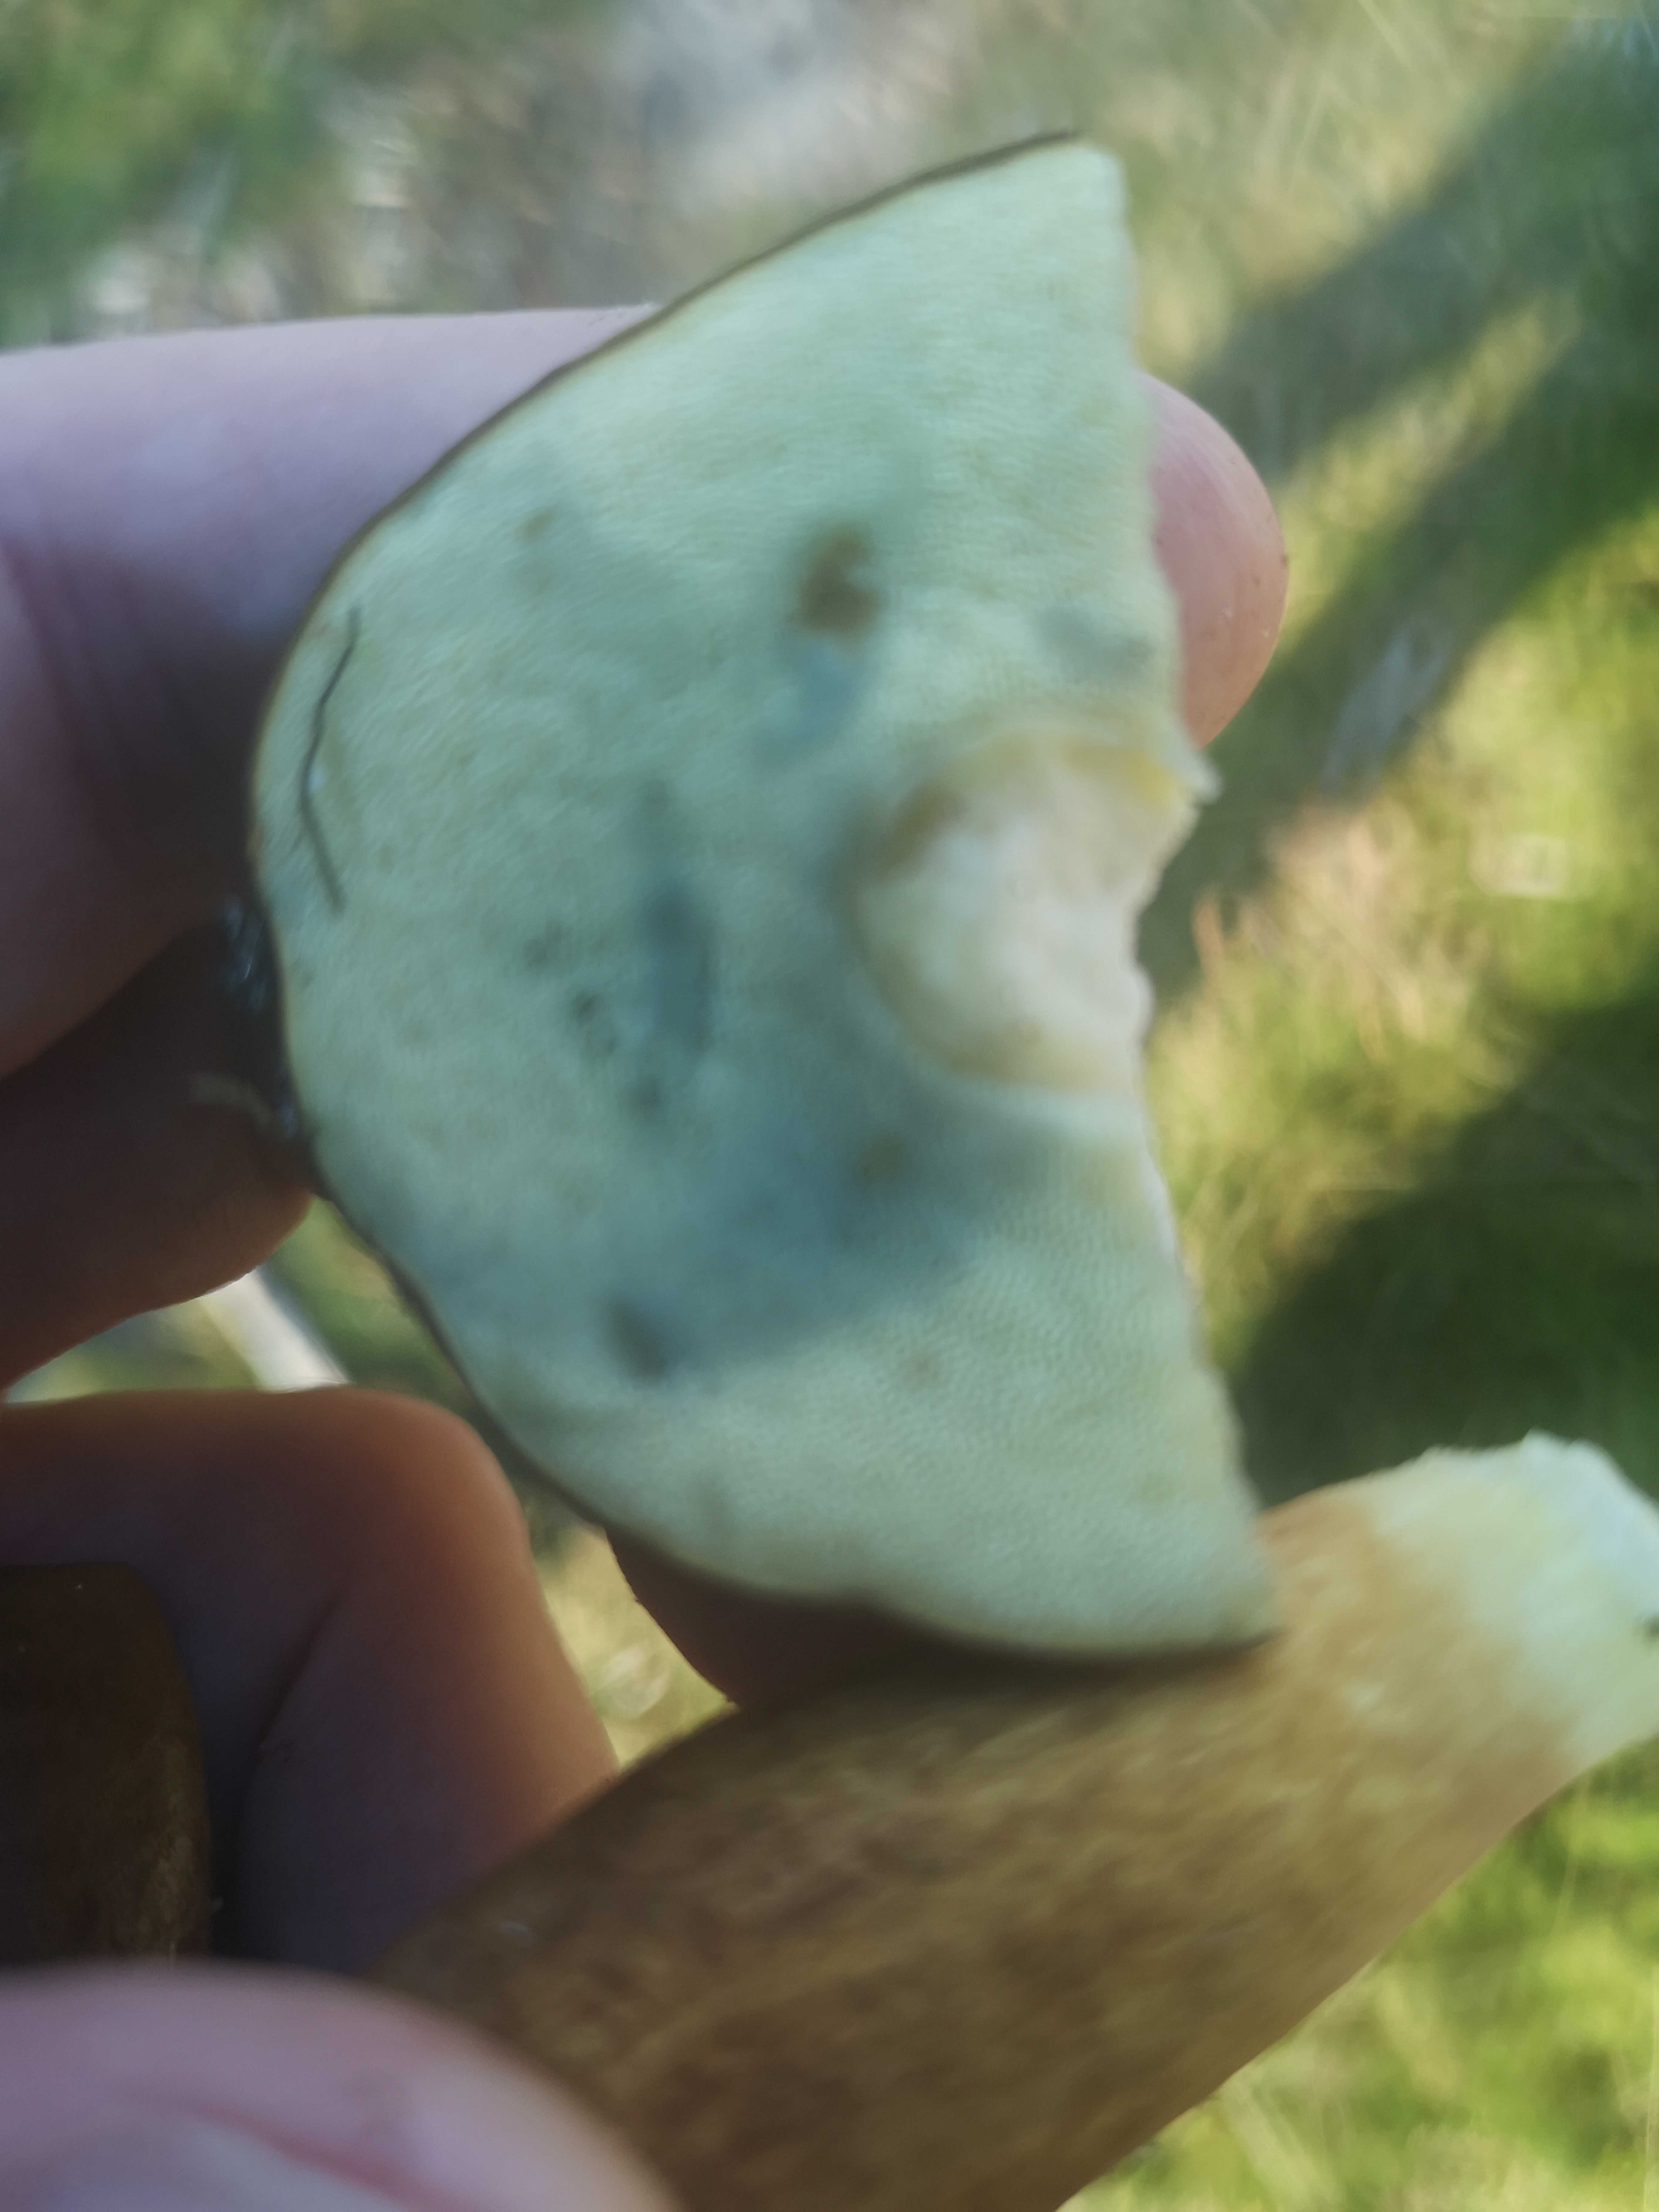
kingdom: Fungi
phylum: Basidiomycota
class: Agaricomycetes
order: Boletales
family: Boletaceae
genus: Imleria
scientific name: Imleria badia
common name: brunstokket rørhat
